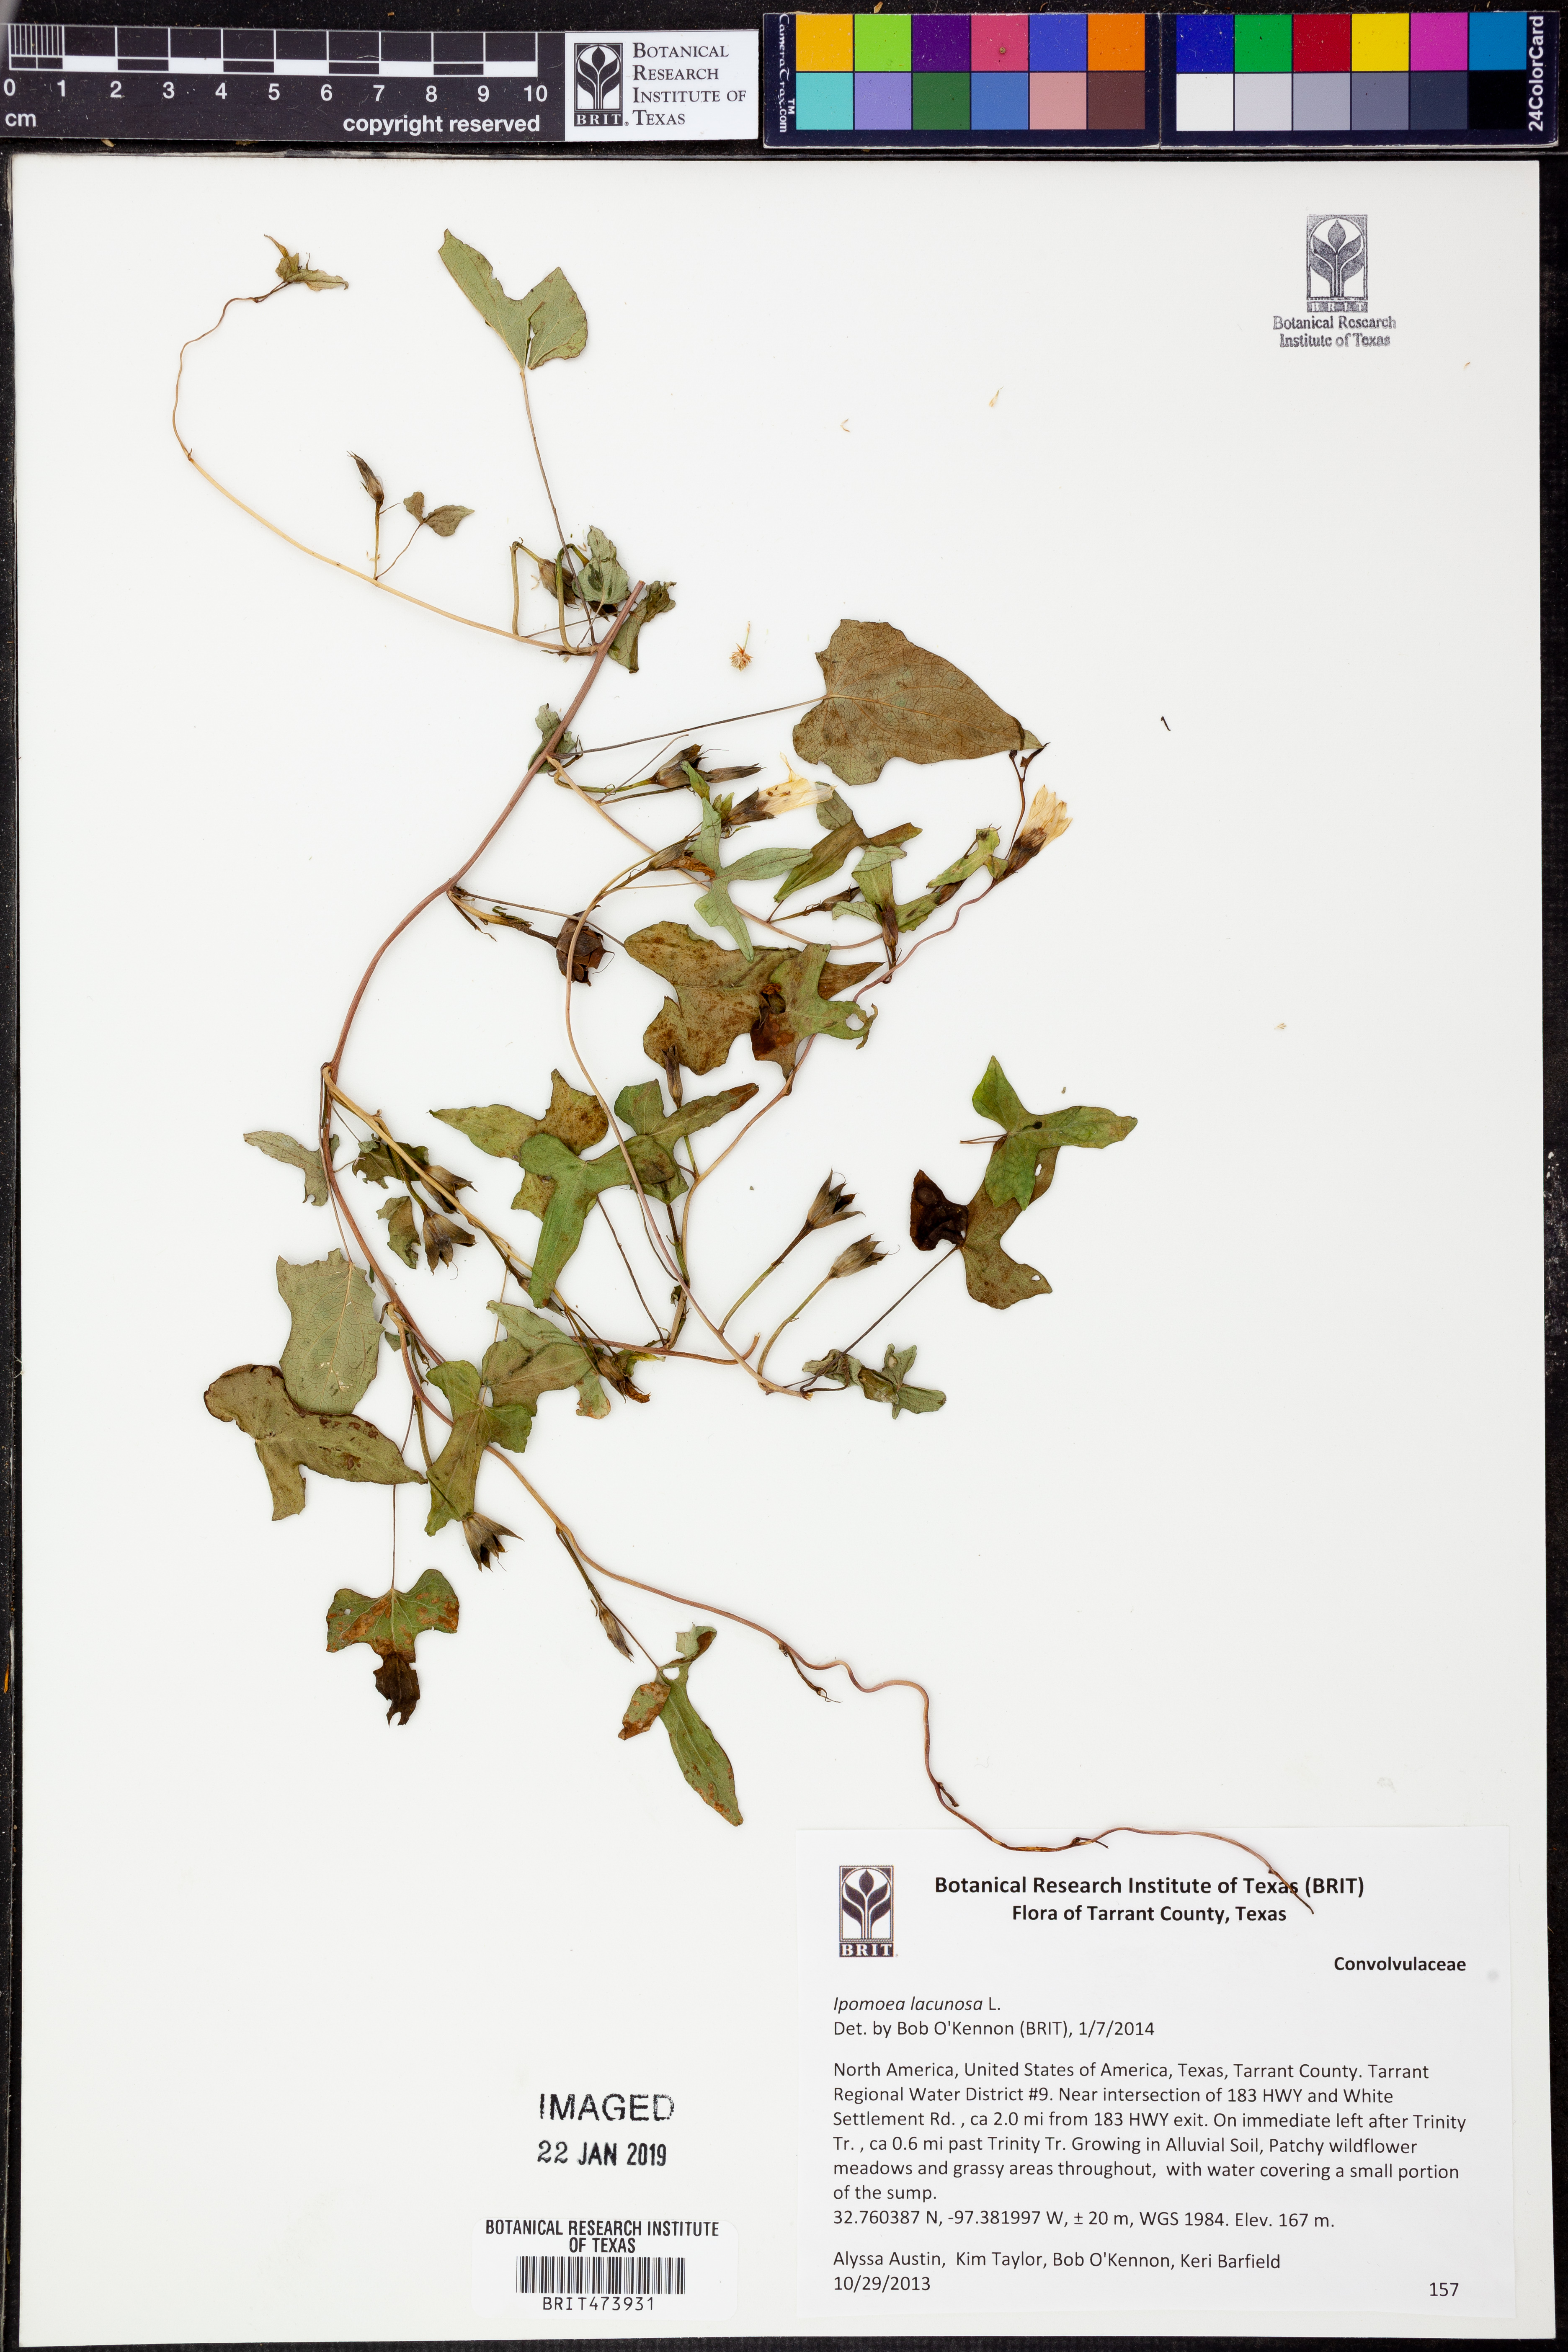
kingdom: Plantae
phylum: Tracheophyta
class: Magnoliopsida
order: Solanales
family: Convolvulaceae
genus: Ipomoea
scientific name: Ipomoea lacunosa
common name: White morning-glory
